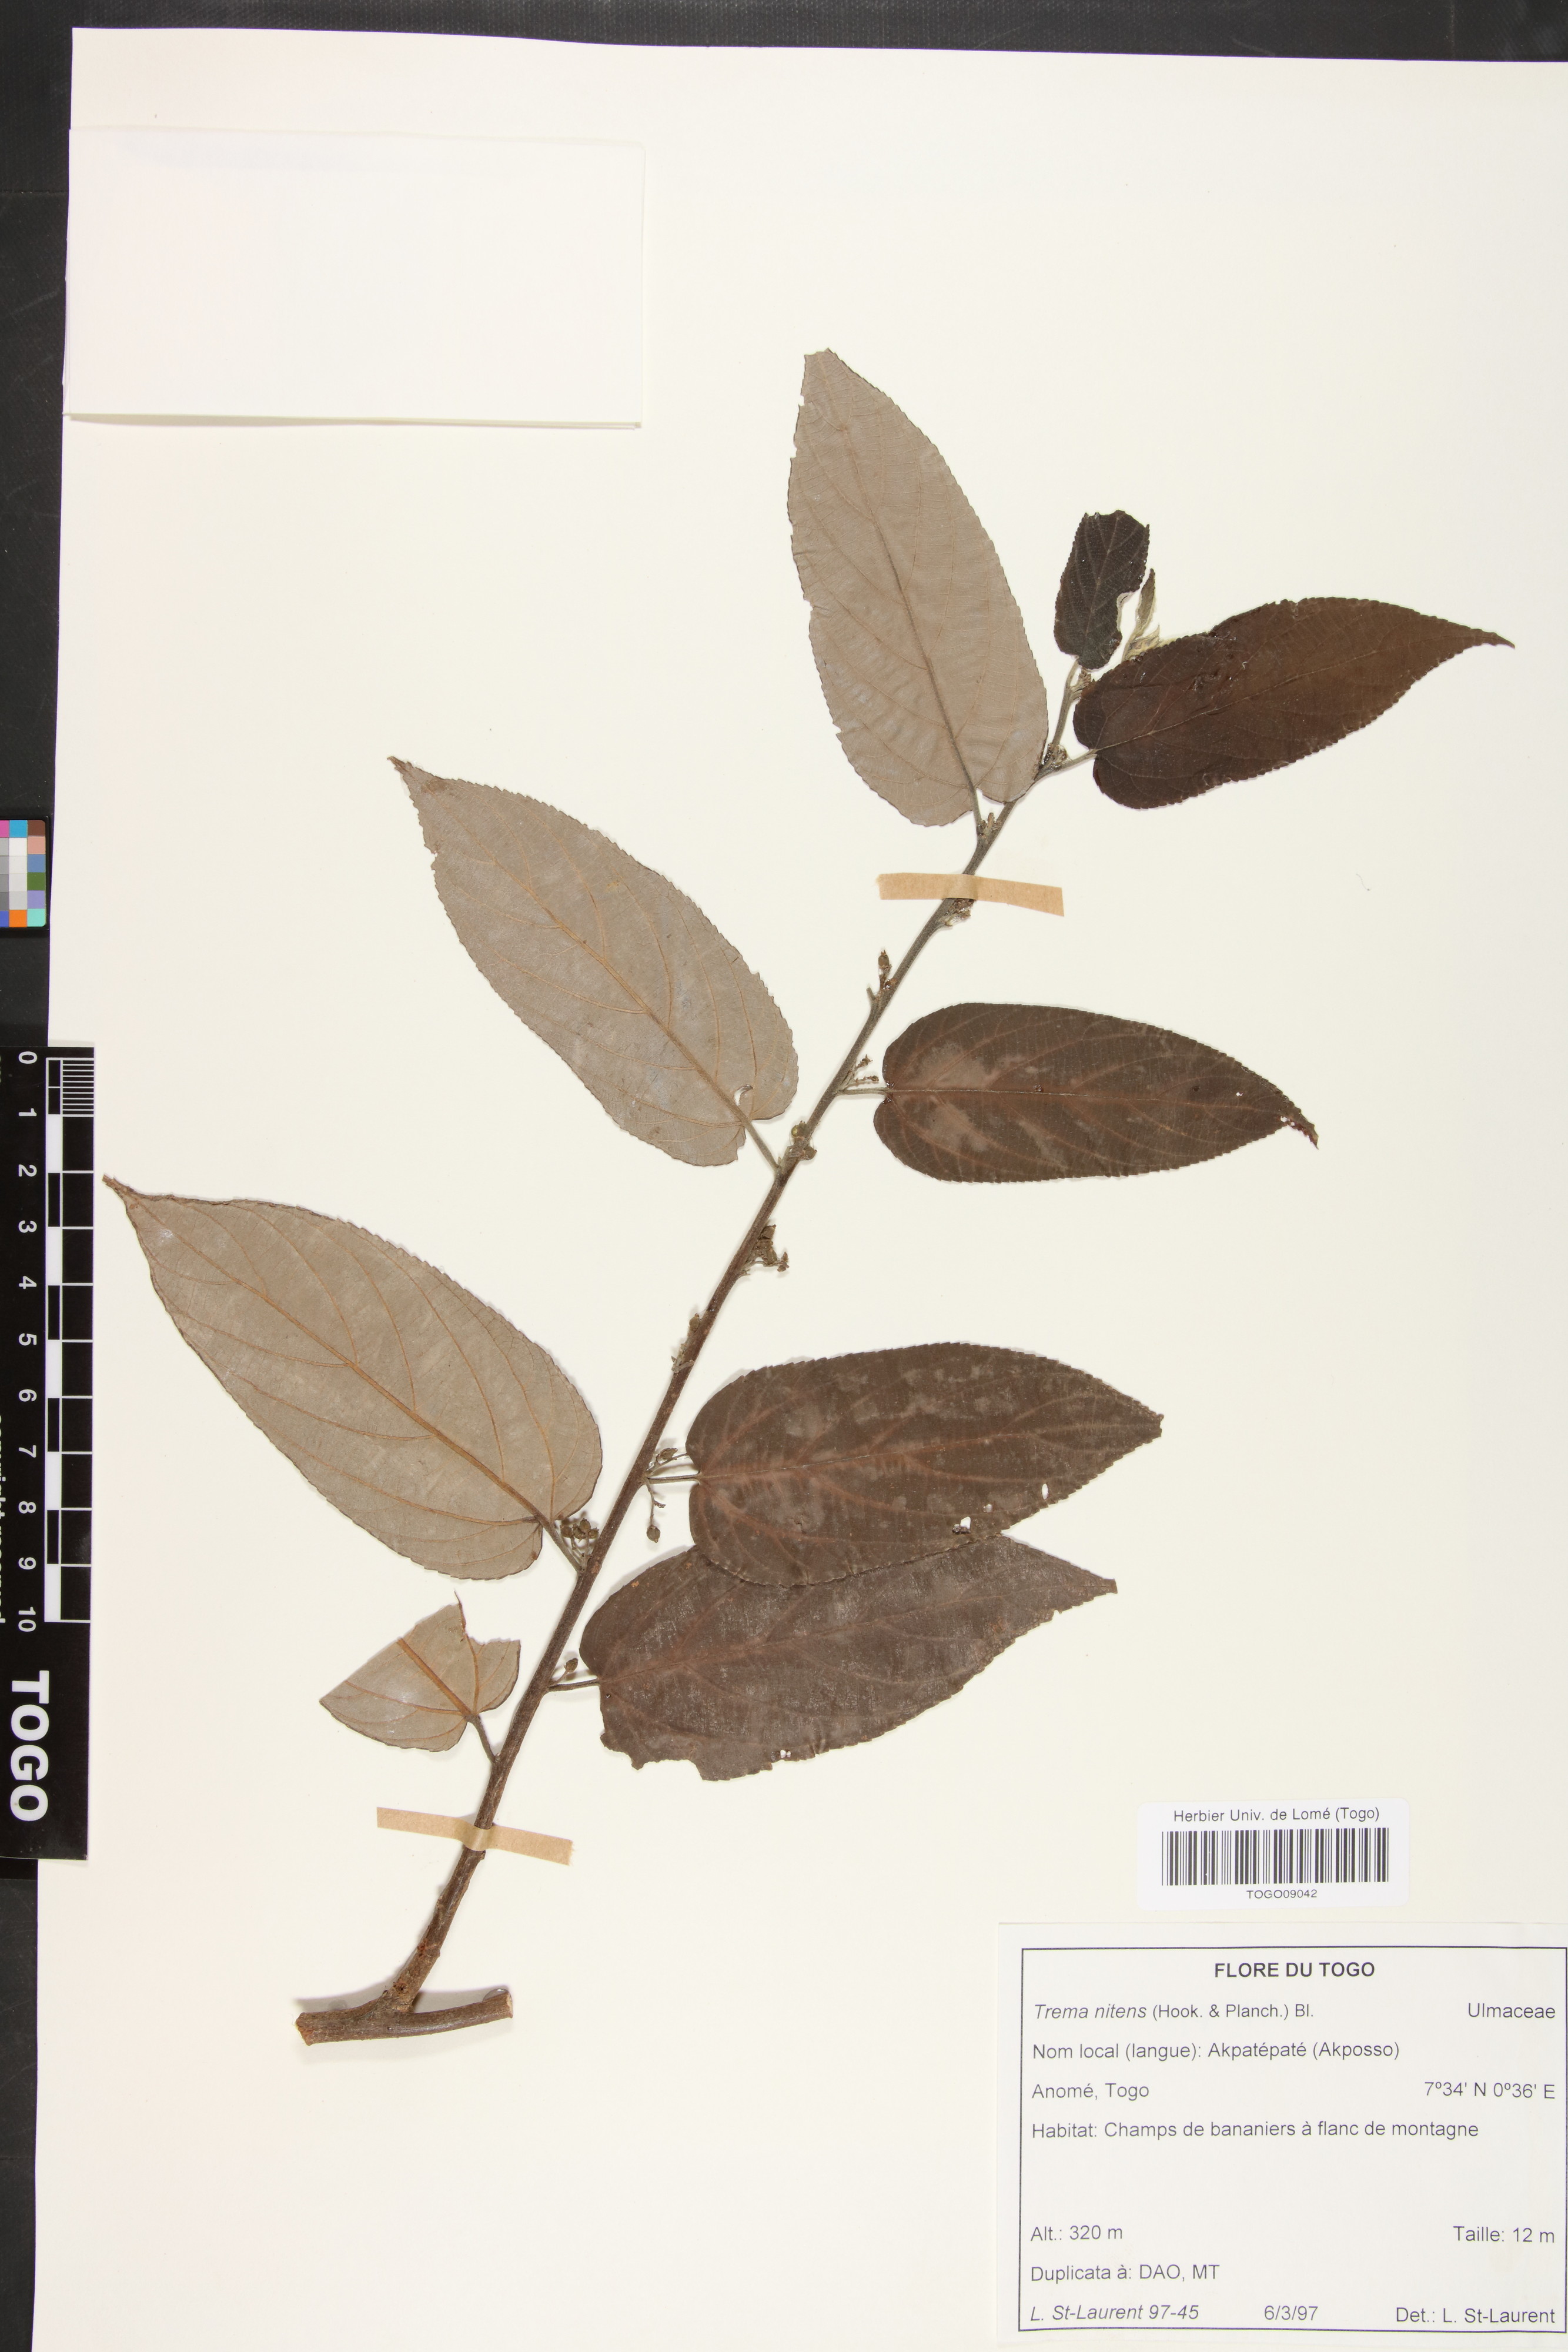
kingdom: Plantae
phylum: Tracheophyta
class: Magnoliopsida
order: Rosales
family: Cannabaceae
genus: Trema
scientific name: Trema orientale
